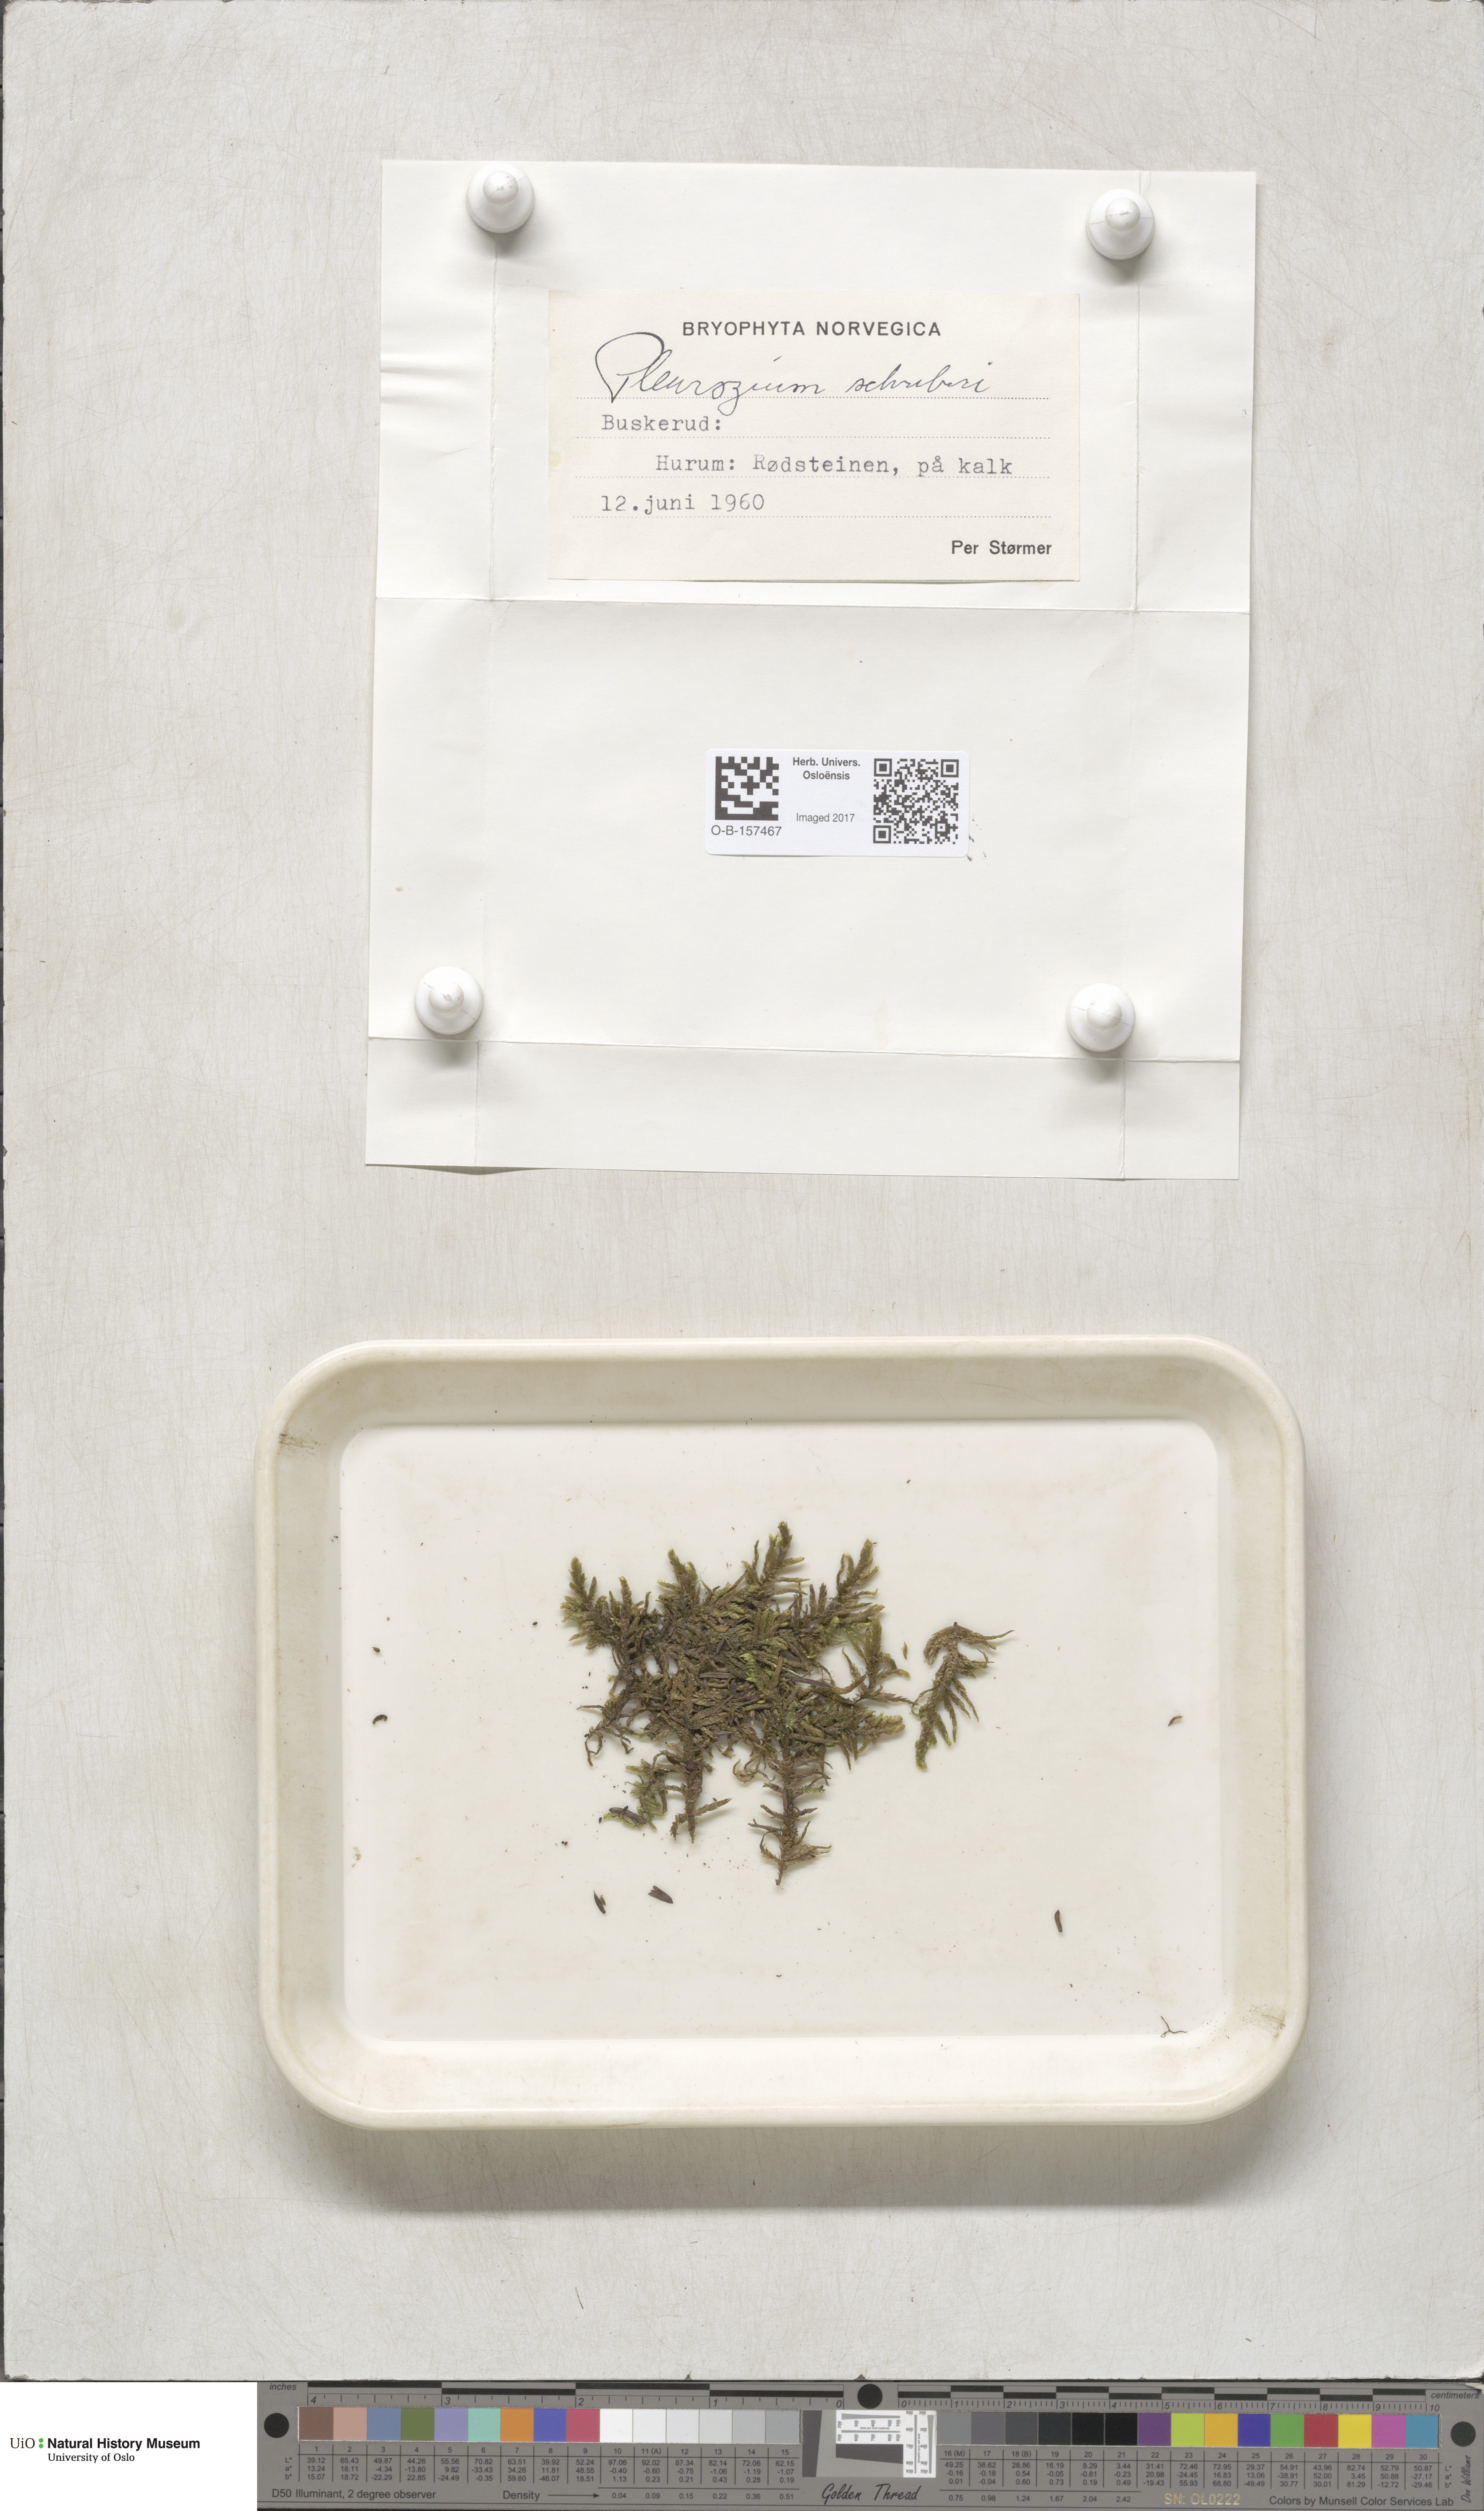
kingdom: Plantae
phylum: Bryophyta
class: Bryopsida
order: Hypnales
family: Hylocomiaceae
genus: Pleurozium
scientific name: Pleurozium schreberi
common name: Red-stemmed feather moss
